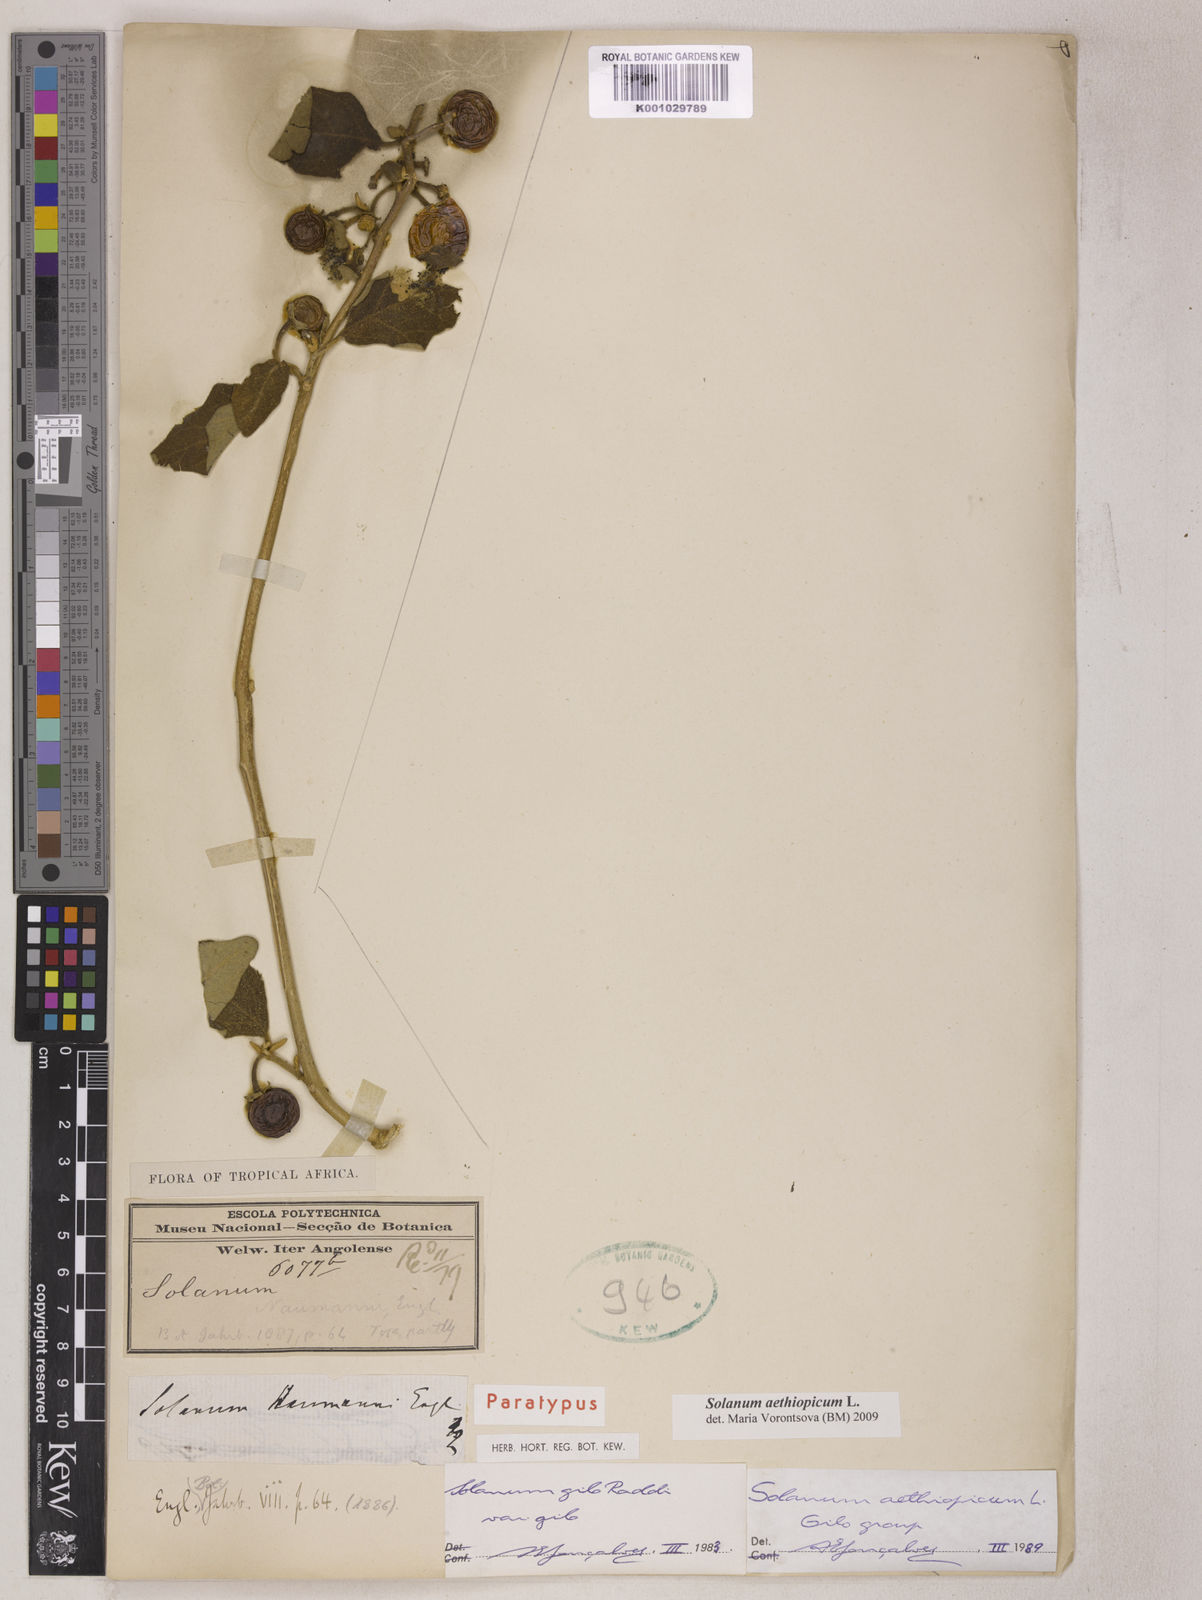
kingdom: Plantae
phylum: Tracheophyta
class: Magnoliopsida
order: Solanales
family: Solanaceae
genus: Solanum
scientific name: Solanum aethiopicum
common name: Gilo
